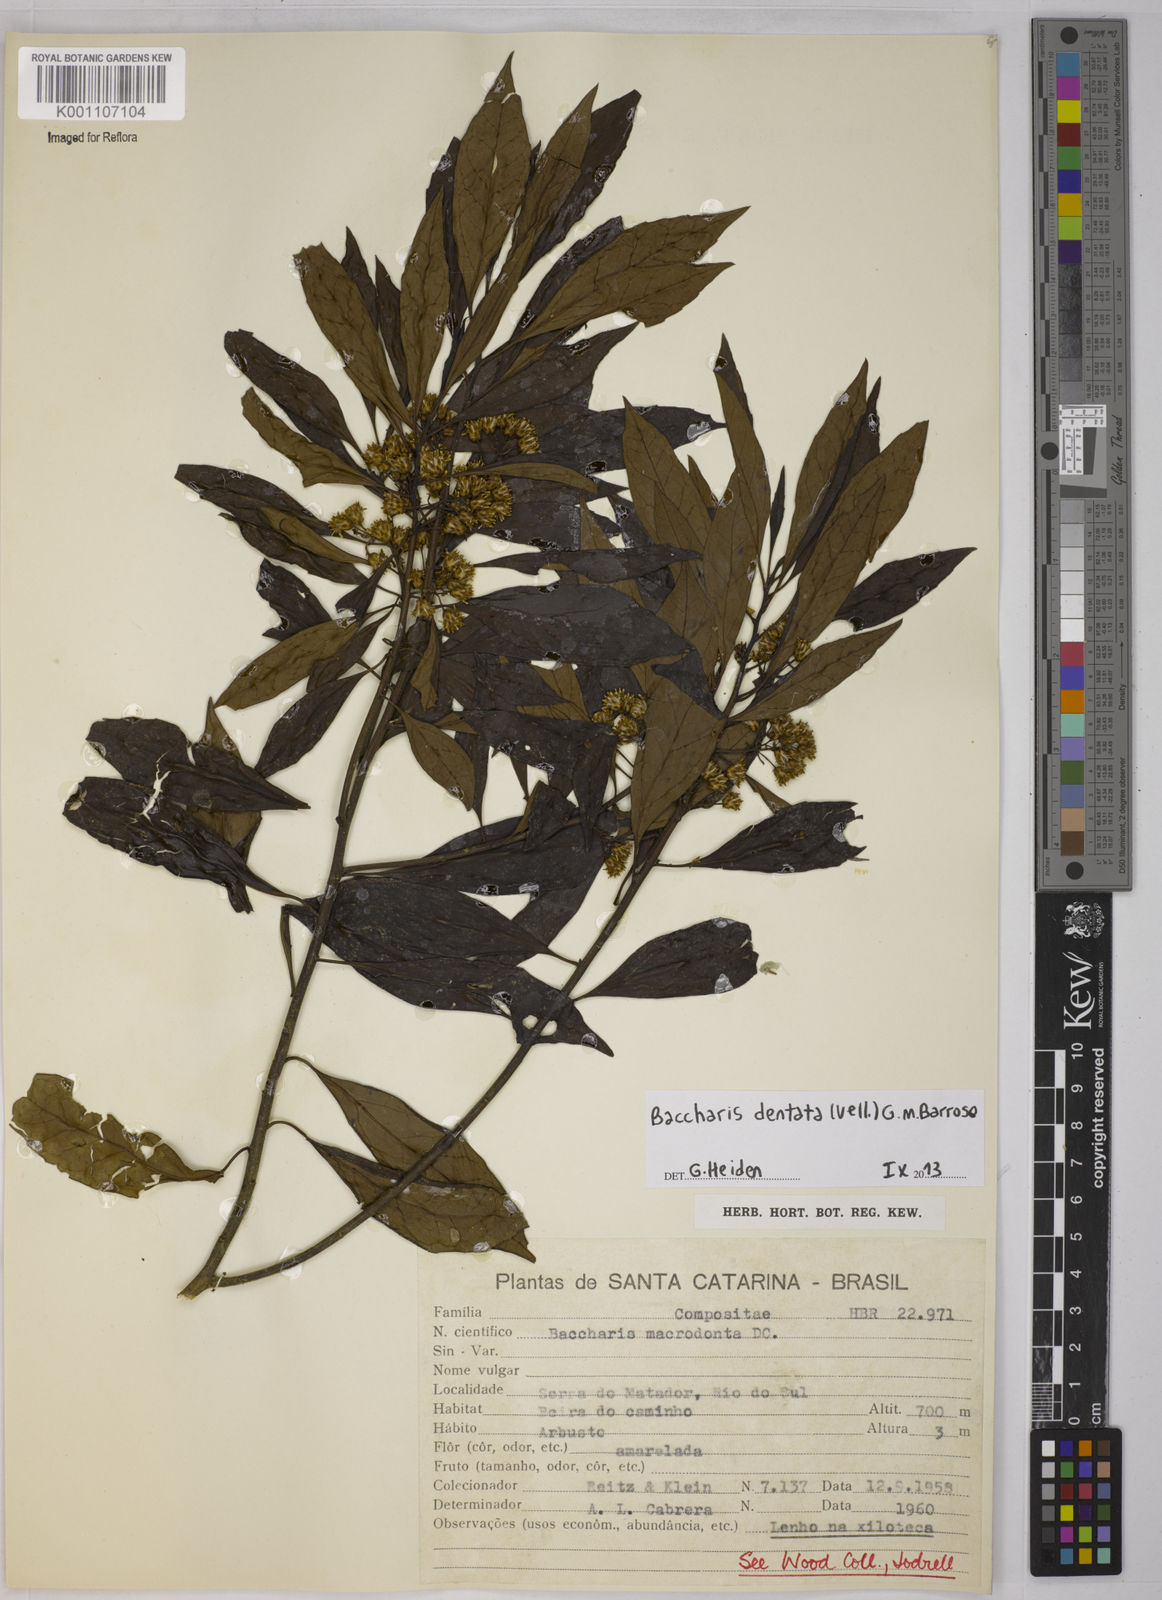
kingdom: Plantae
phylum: Tracheophyta
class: Magnoliopsida
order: Asterales
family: Asteraceae
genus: Baccharis
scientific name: Baccharis dentata
